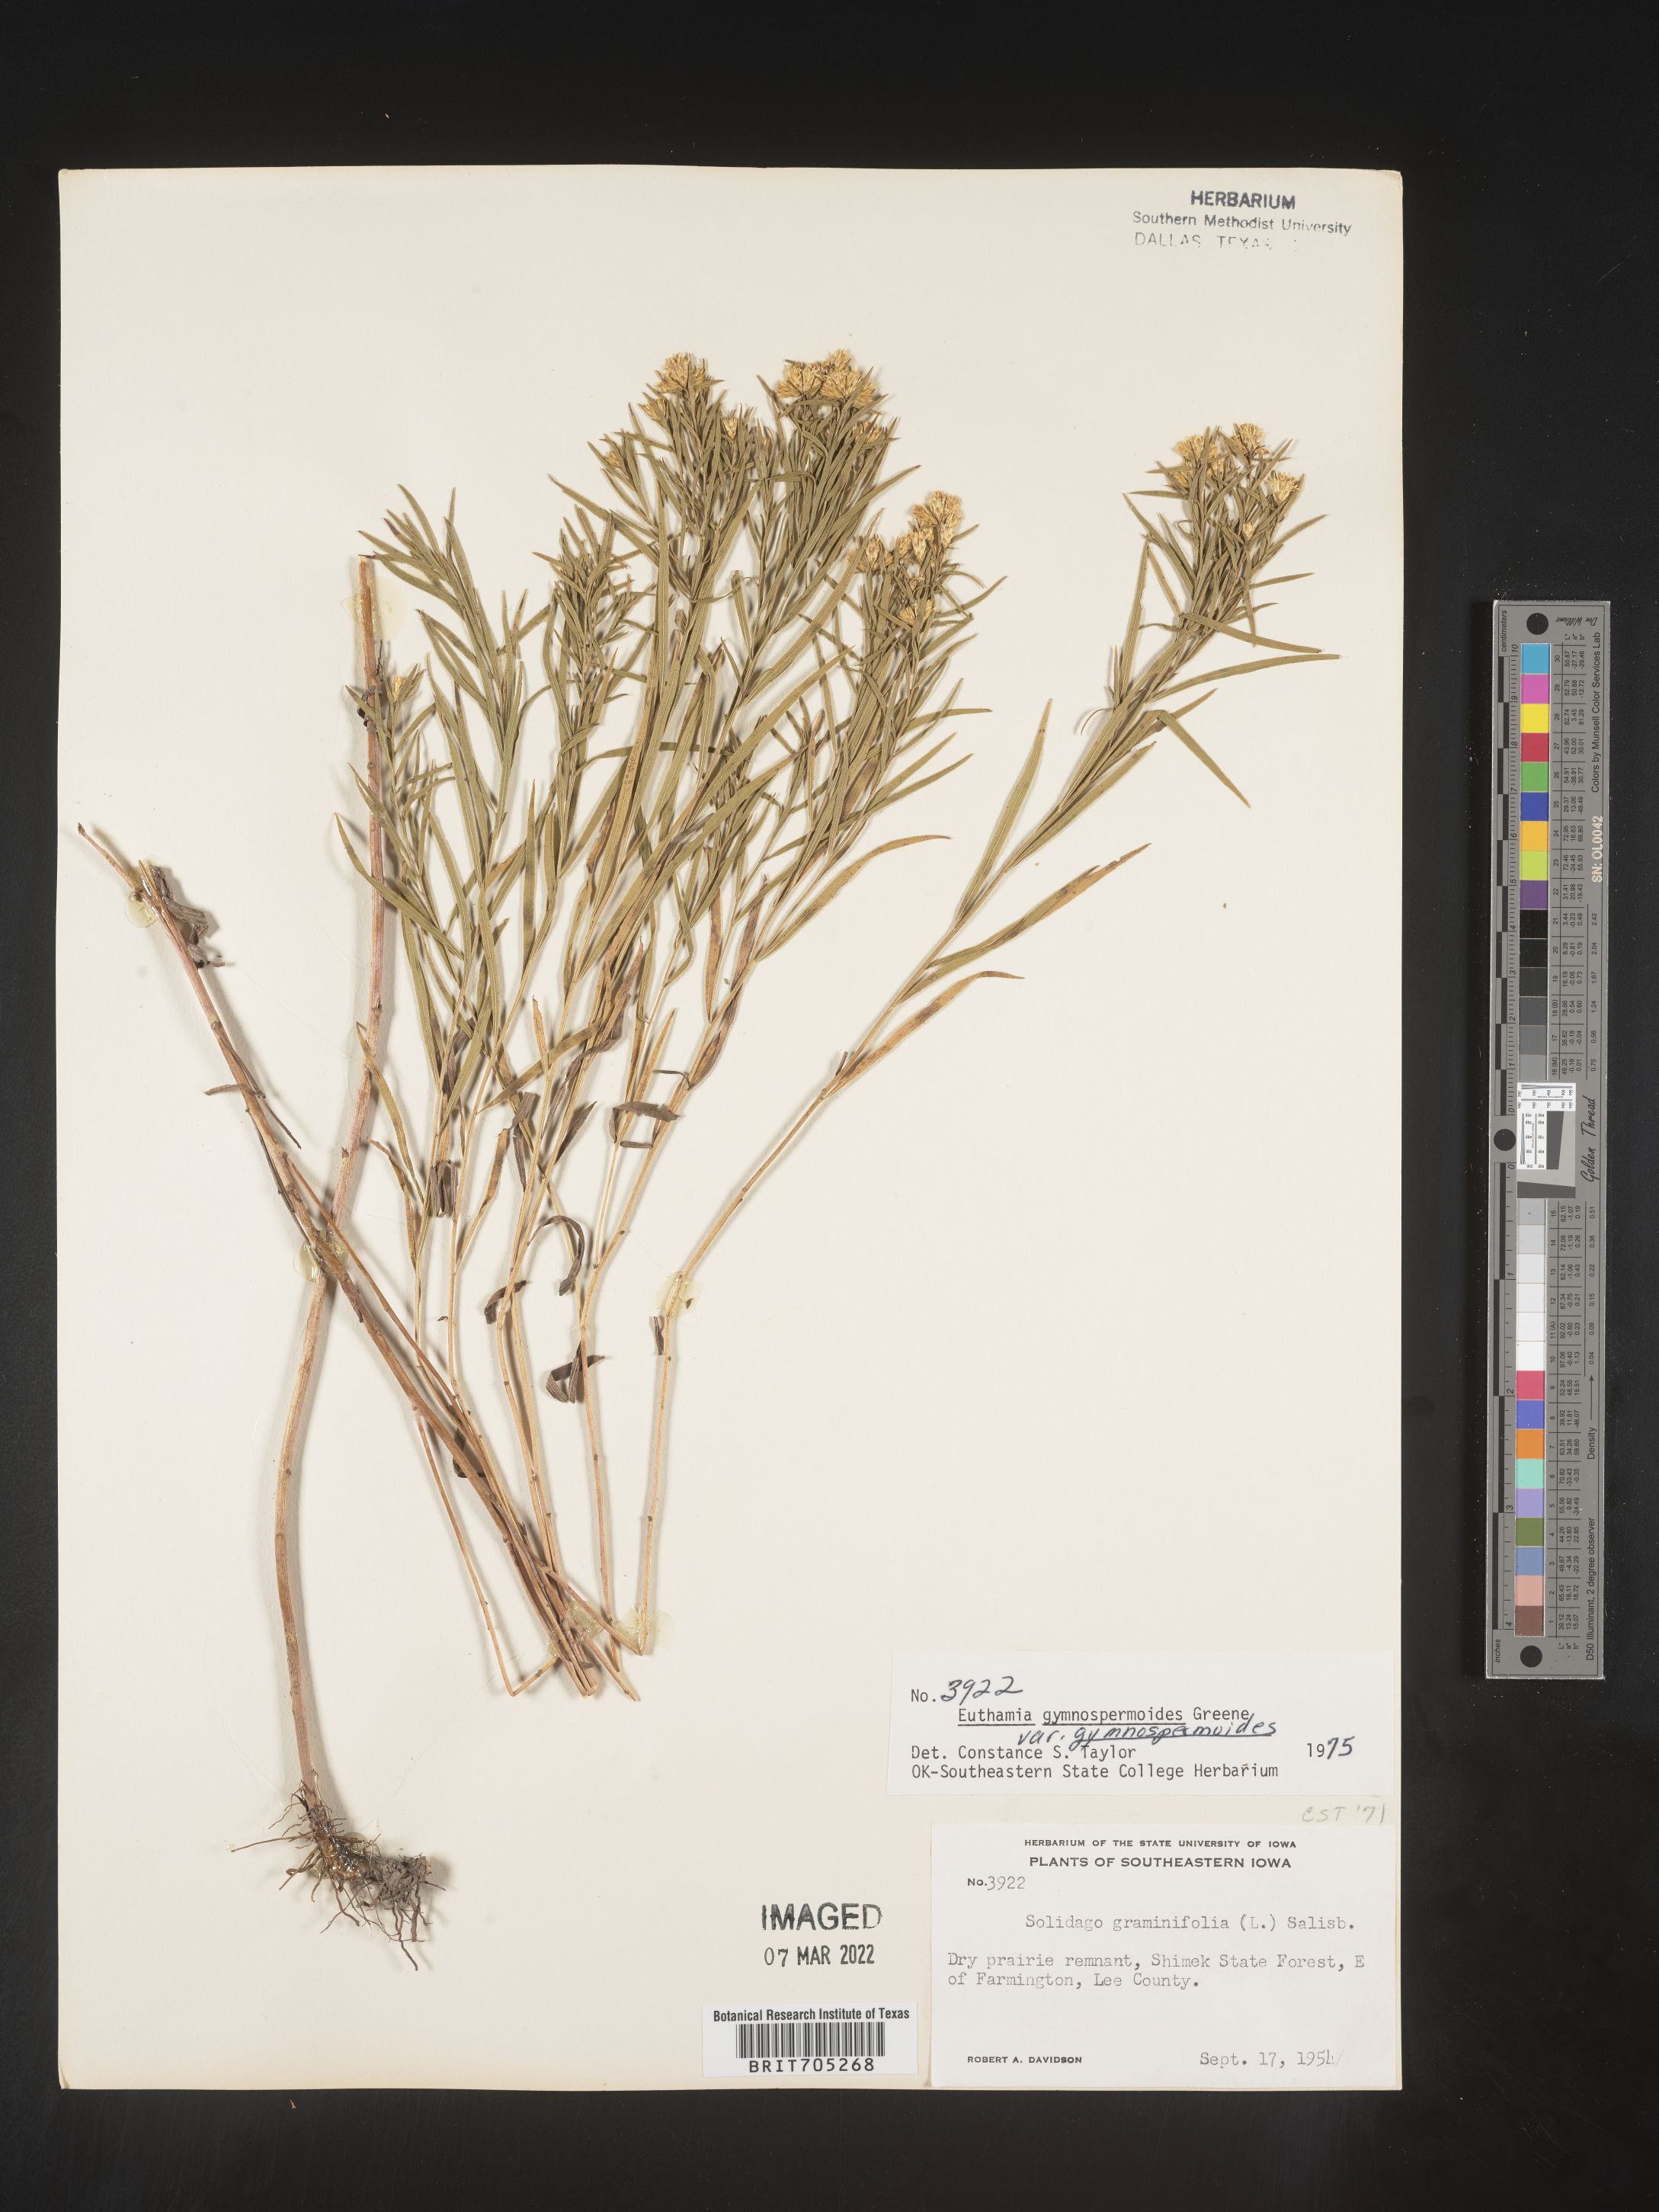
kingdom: Plantae
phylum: Tracheophyta
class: Magnoliopsida
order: Asterales
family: Asteraceae
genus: Euthamia
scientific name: Euthamia gymnospermoides
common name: Great plains goldentop
